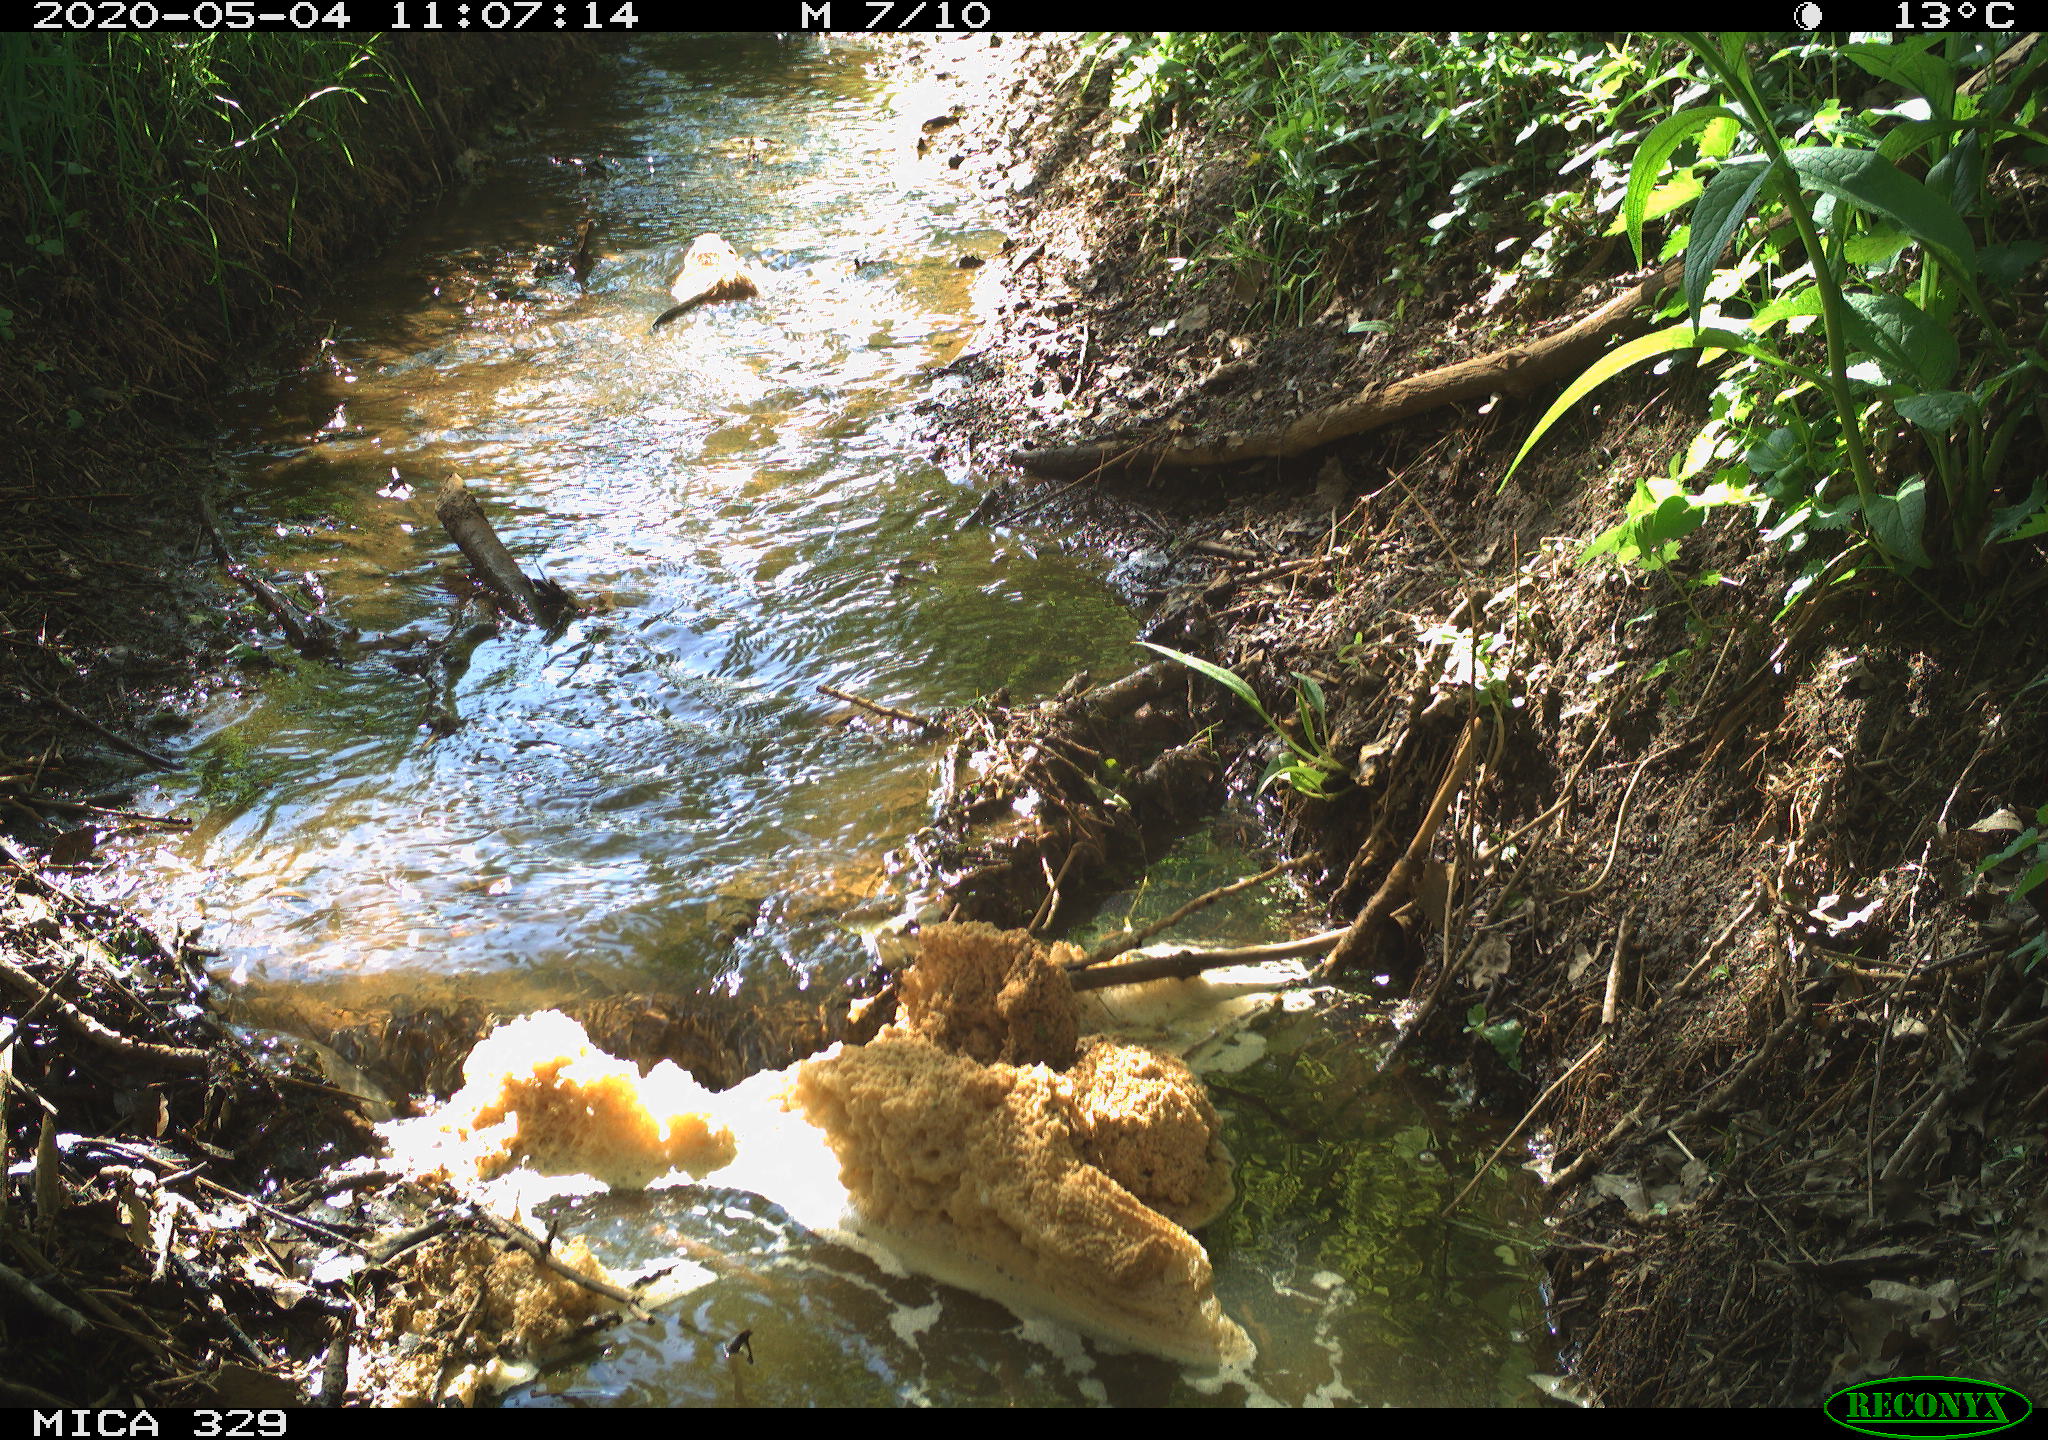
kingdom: Animalia
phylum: Chordata
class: Mammalia
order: Rodentia
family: Cricetidae
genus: Ondatra
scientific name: Ondatra zibethicus
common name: Muskrat
